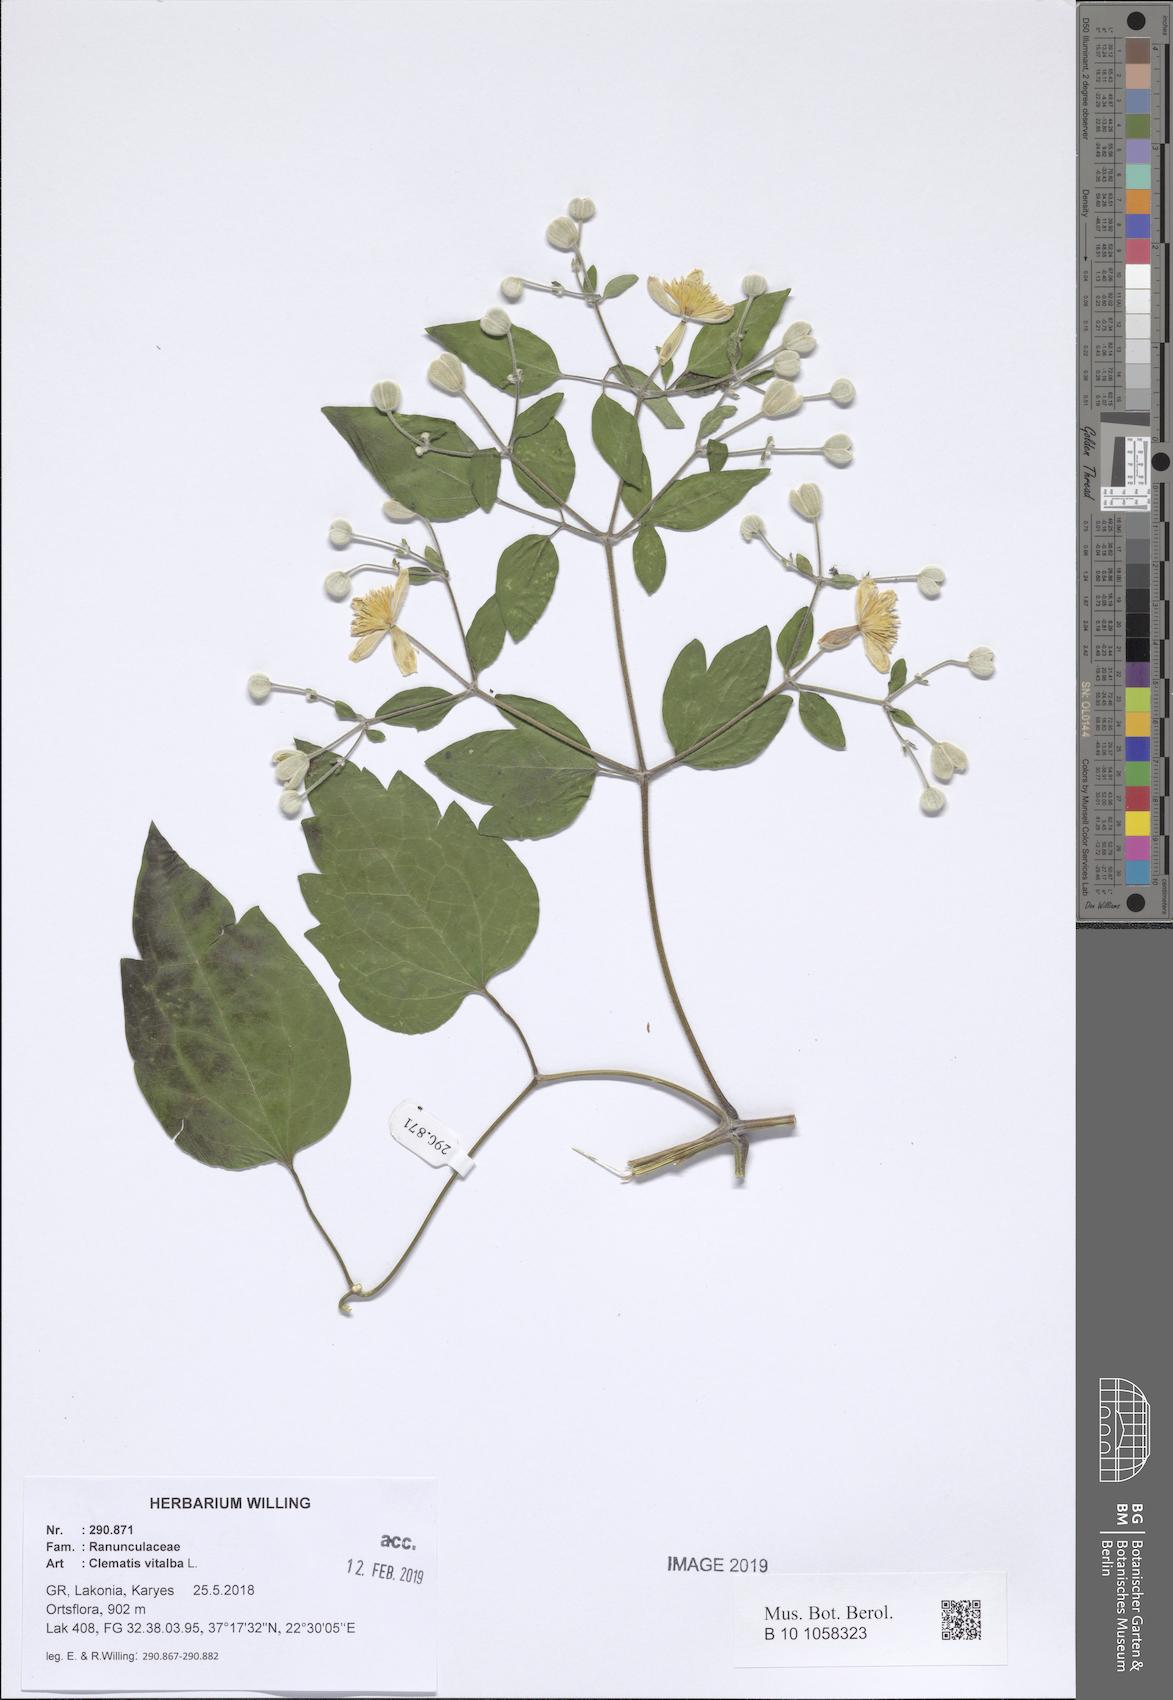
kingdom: Plantae
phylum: Tracheophyta
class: Magnoliopsida
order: Ranunculales
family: Ranunculaceae
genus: Clematis
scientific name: Clematis vitalba
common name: Evergreen clematis
